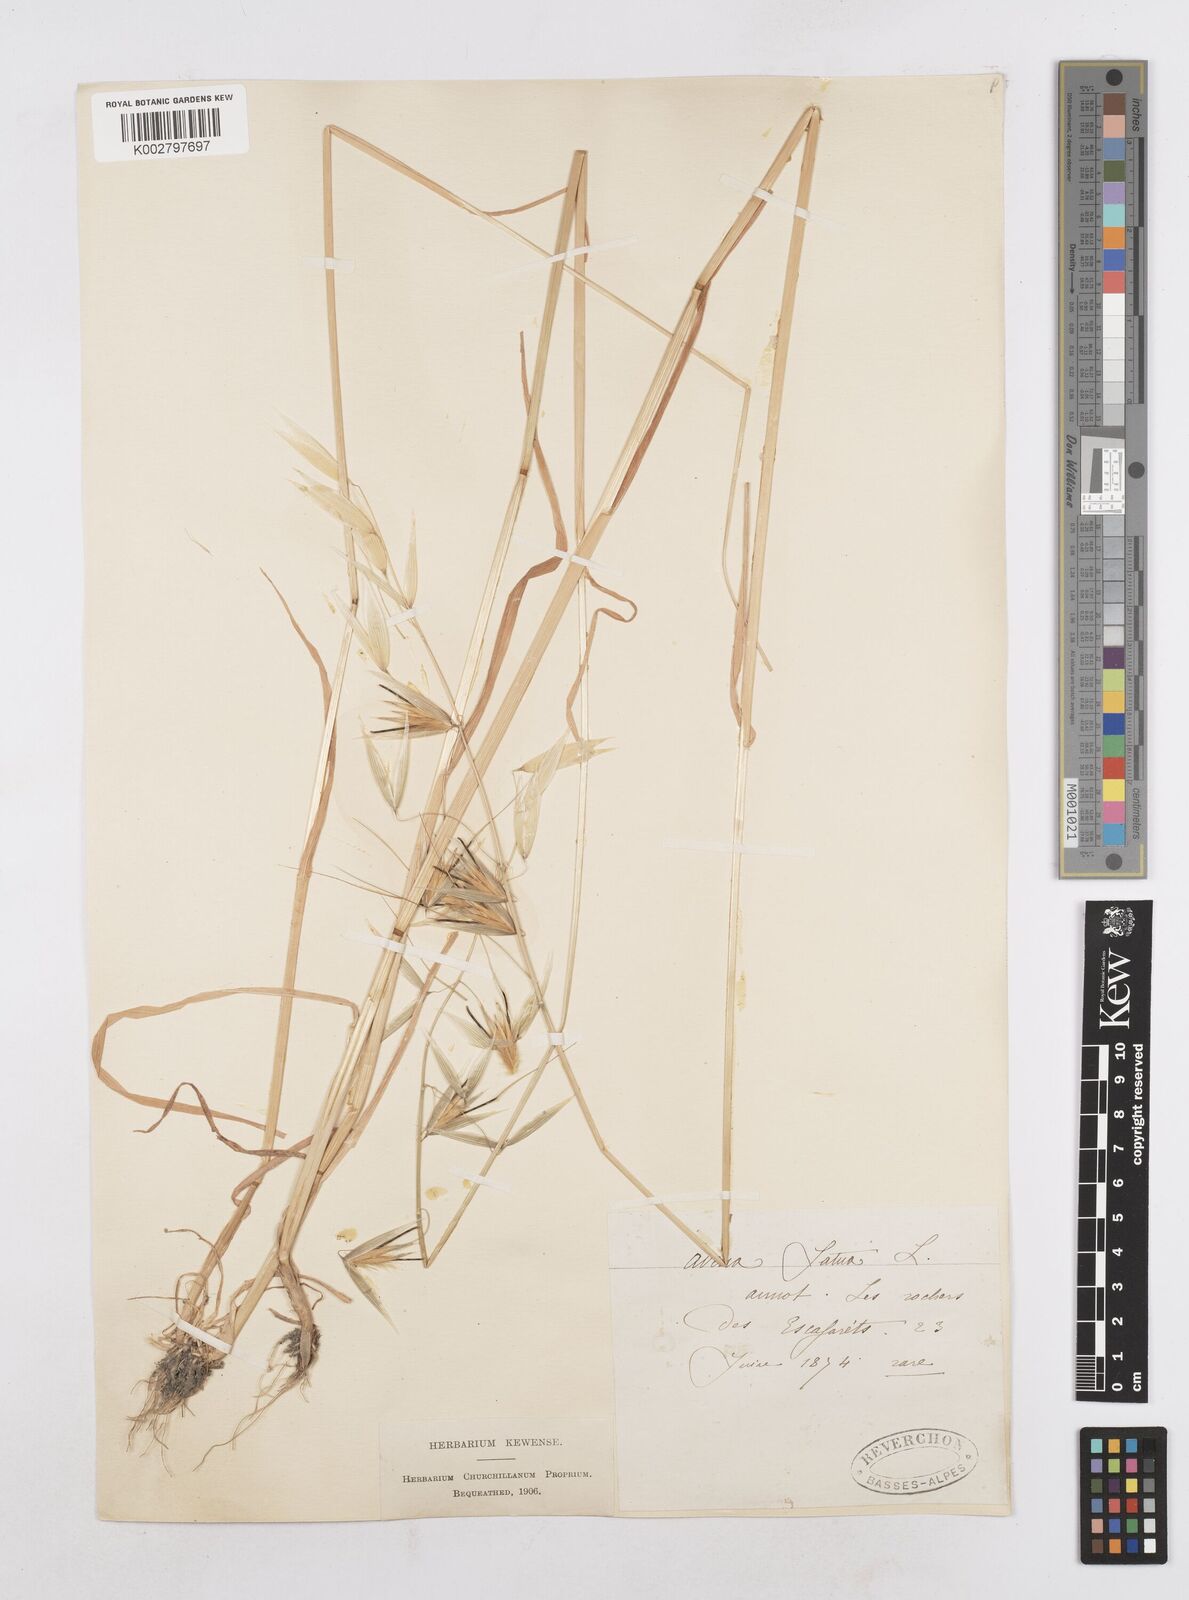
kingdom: Plantae
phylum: Tracheophyta
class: Liliopsida
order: Poales
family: Poaceae
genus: Avena
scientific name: Avena sterilis
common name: Animated oat
